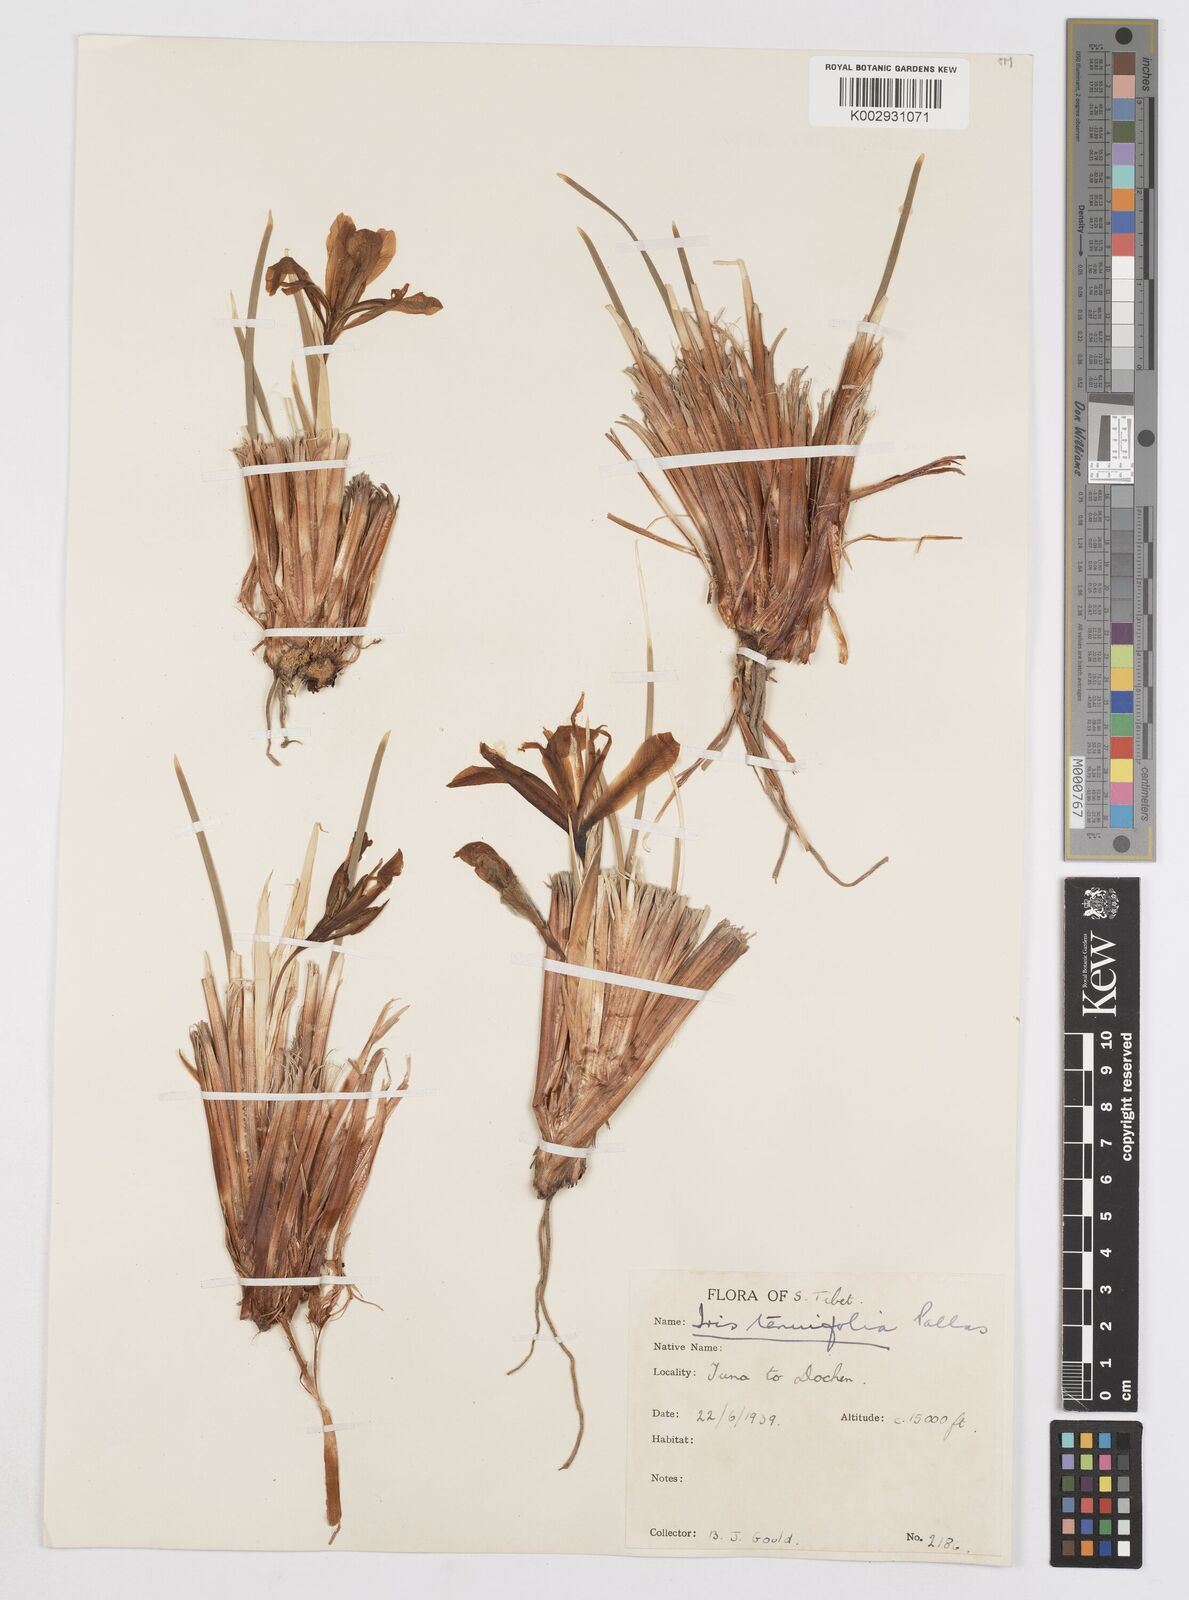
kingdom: Plantae
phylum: Tracheophyta
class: Liliopsida
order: Asparagales
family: Iridaceae
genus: Iris
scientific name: Iris tenuifolia
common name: Slender-leaf iris
